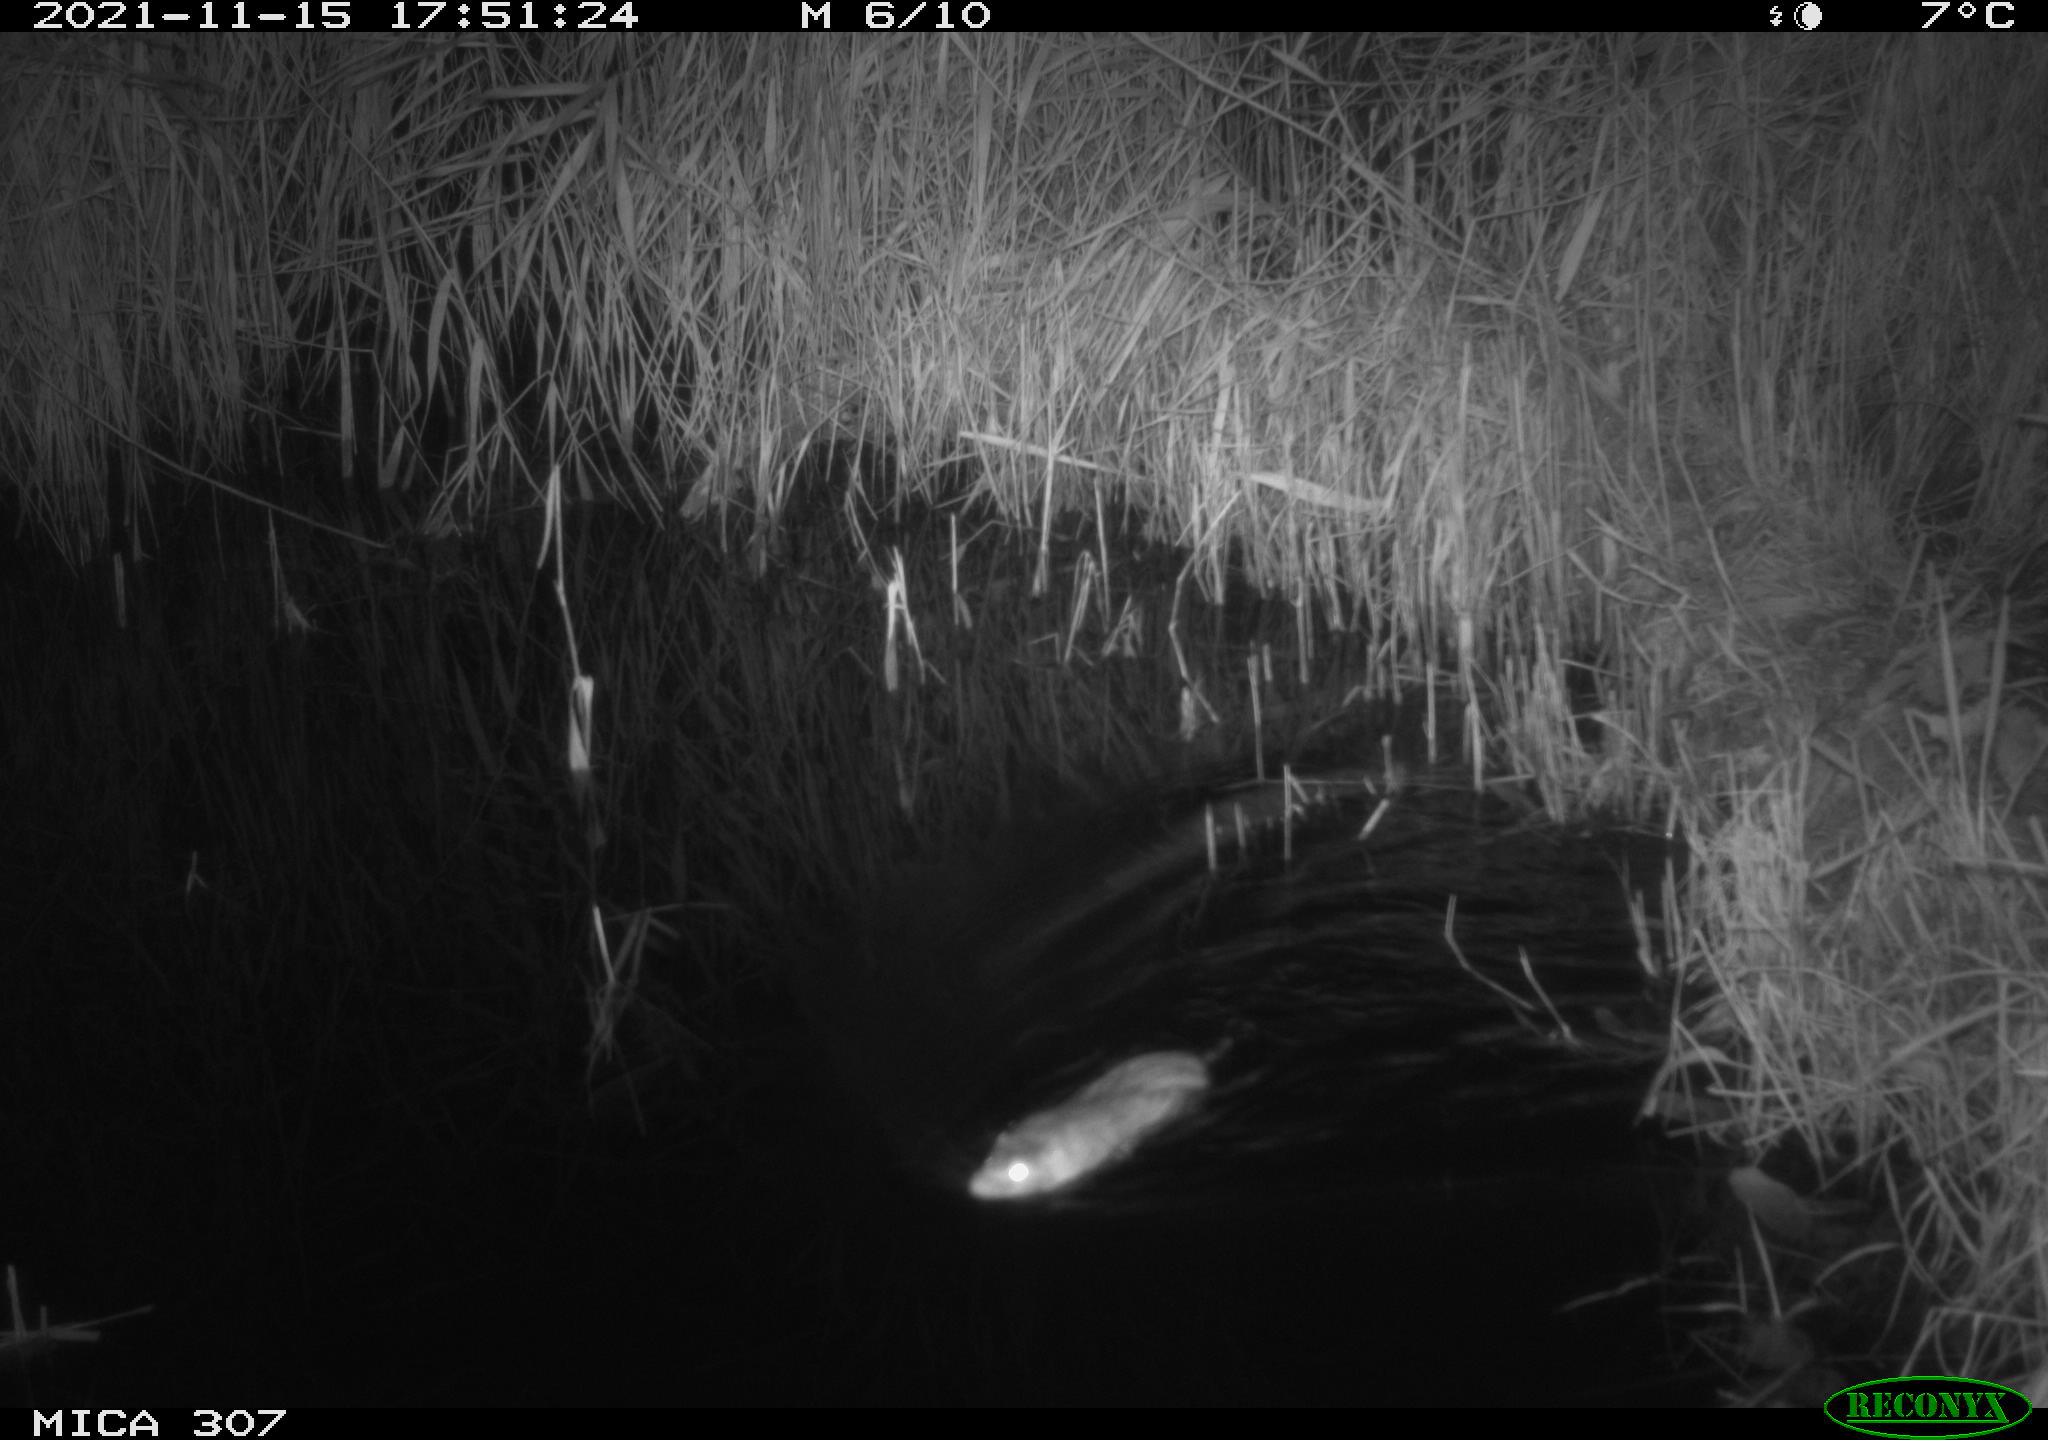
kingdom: Animalia
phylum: Chordata
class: Mammalia
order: Rodentia
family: Muridae
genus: Rattus
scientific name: Rattus norvegicus
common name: Brown rat
